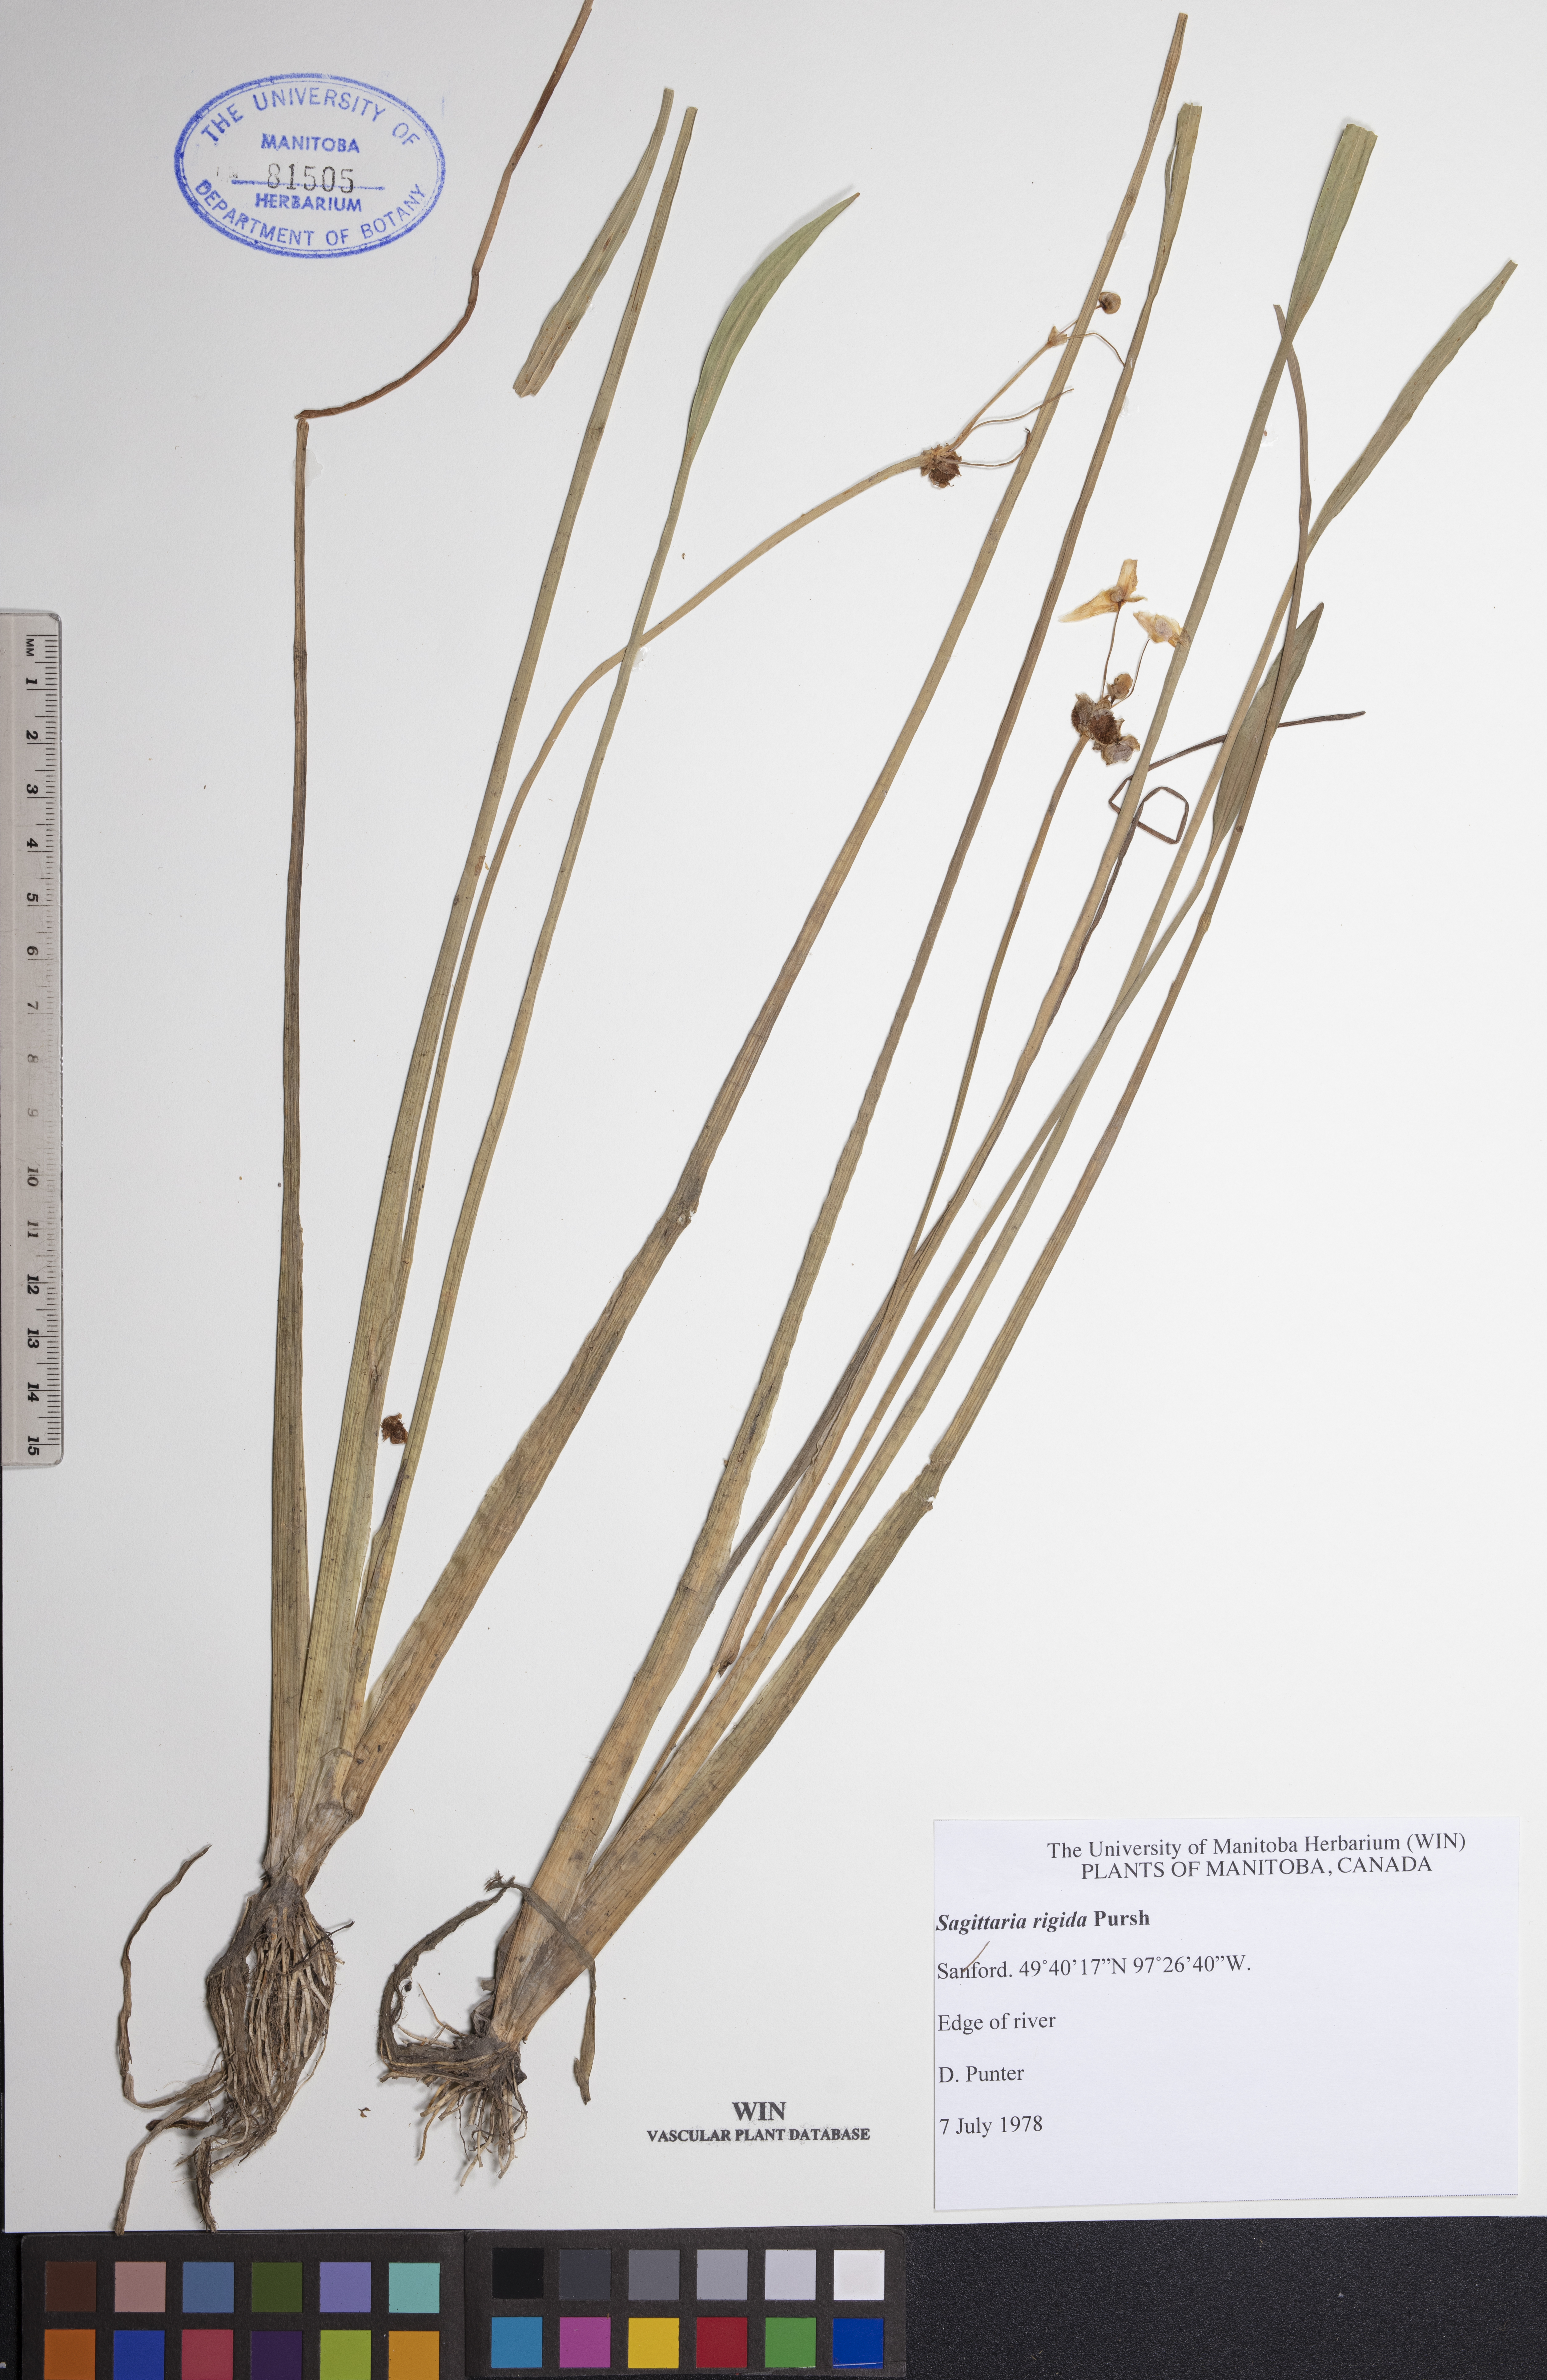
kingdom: Plantae
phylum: Tracheophyta
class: Liliopsida
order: Alismatales
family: Alismataceae
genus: Sagittaria
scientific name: Sagittaria rigida
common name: Canadian arrowhead
